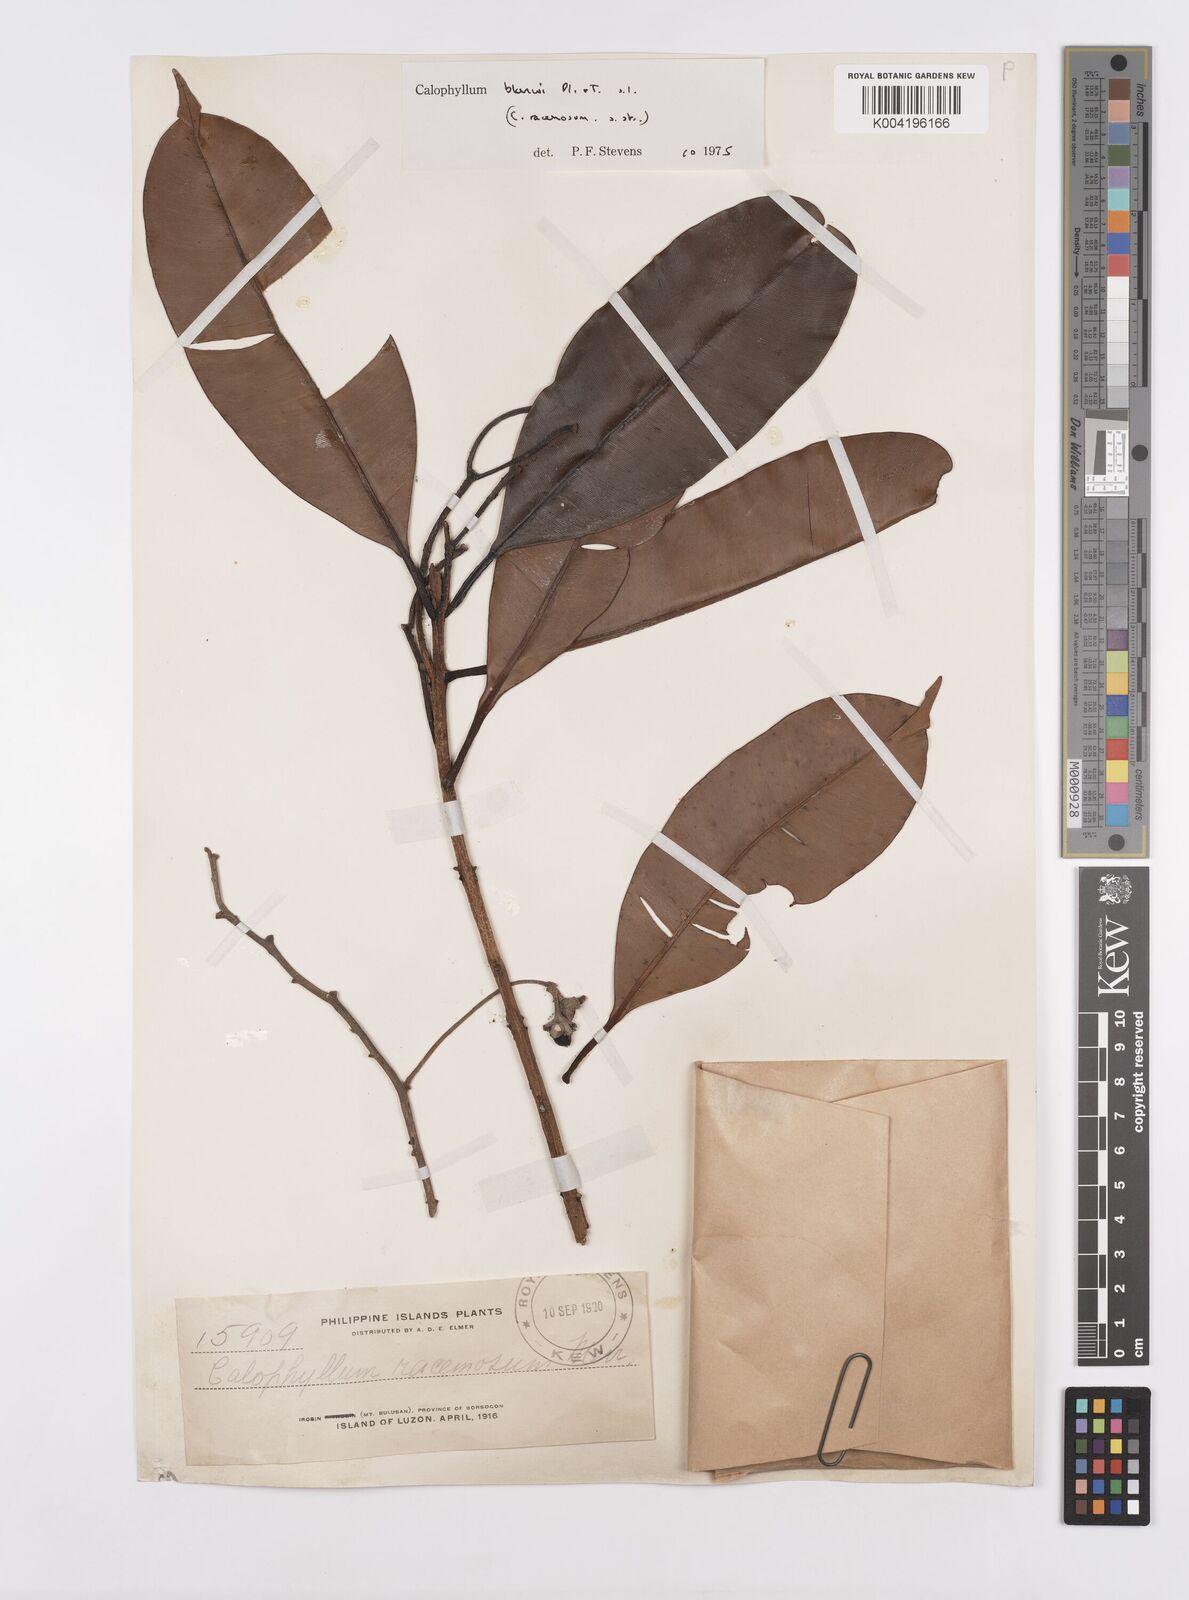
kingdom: Plantae
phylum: Tracheophyta
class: Magnoliopsida
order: Malpighiales
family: Calophyllaceae
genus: Calophyllum
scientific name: Calophyllum blancoi
